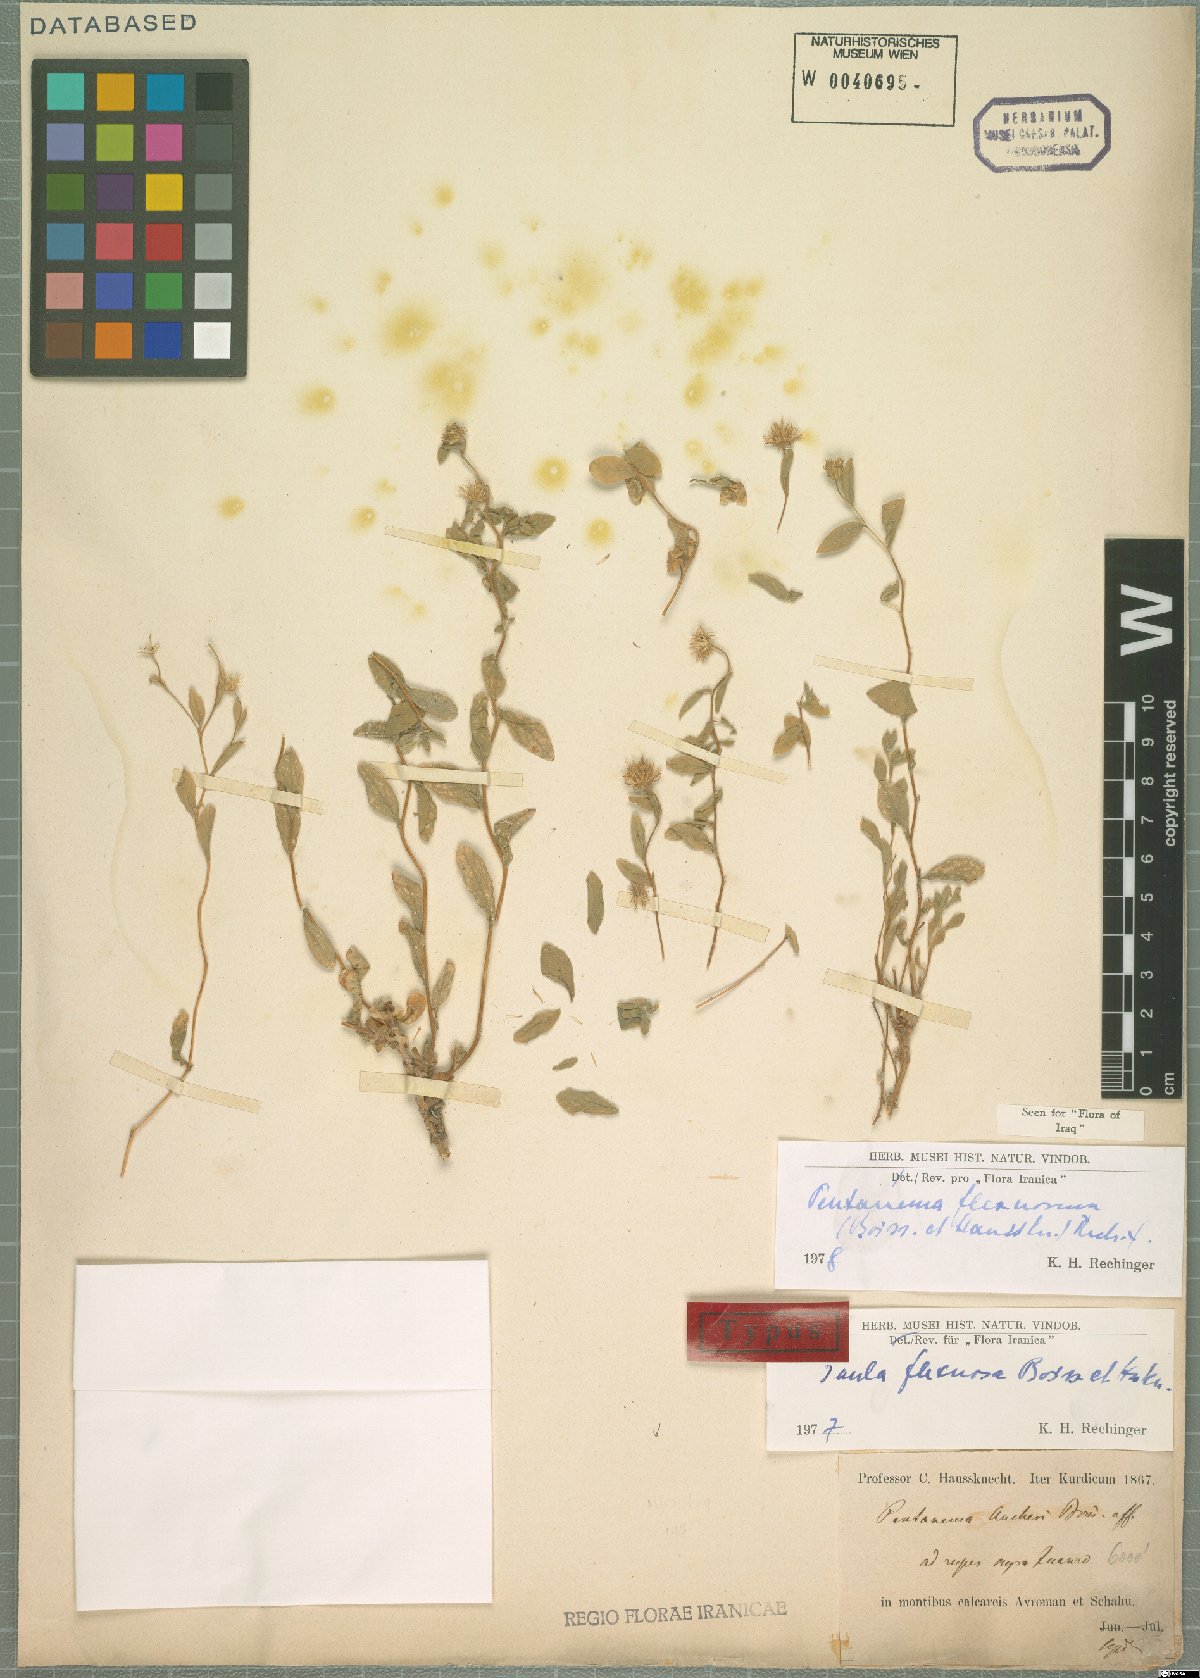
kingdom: Plantae
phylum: Tracheophyta
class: Magnoliopsida
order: Asterales
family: Asteraceae
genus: Pentanema
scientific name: Pentanema flexuosum
